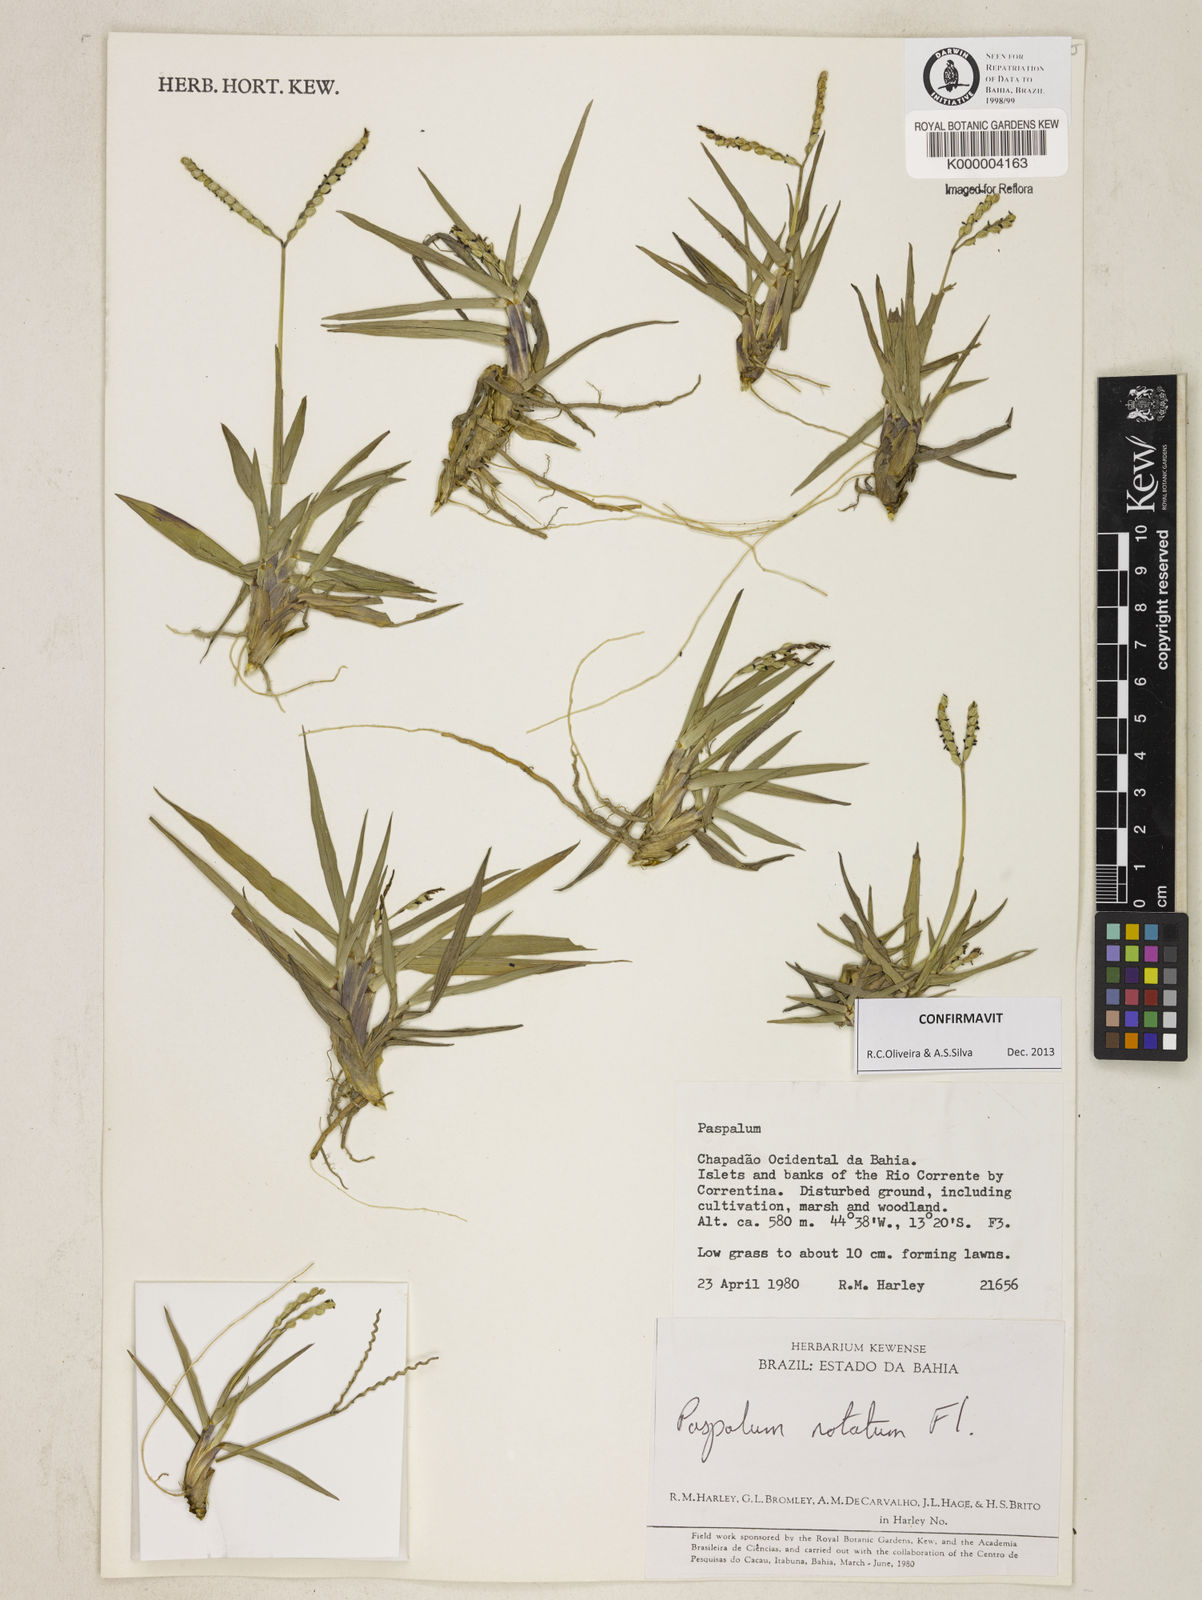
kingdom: Plantae
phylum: Tracheophyta
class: Liliopsida
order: Poales
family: Poaceae
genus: Paspalum
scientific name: Paspalum
